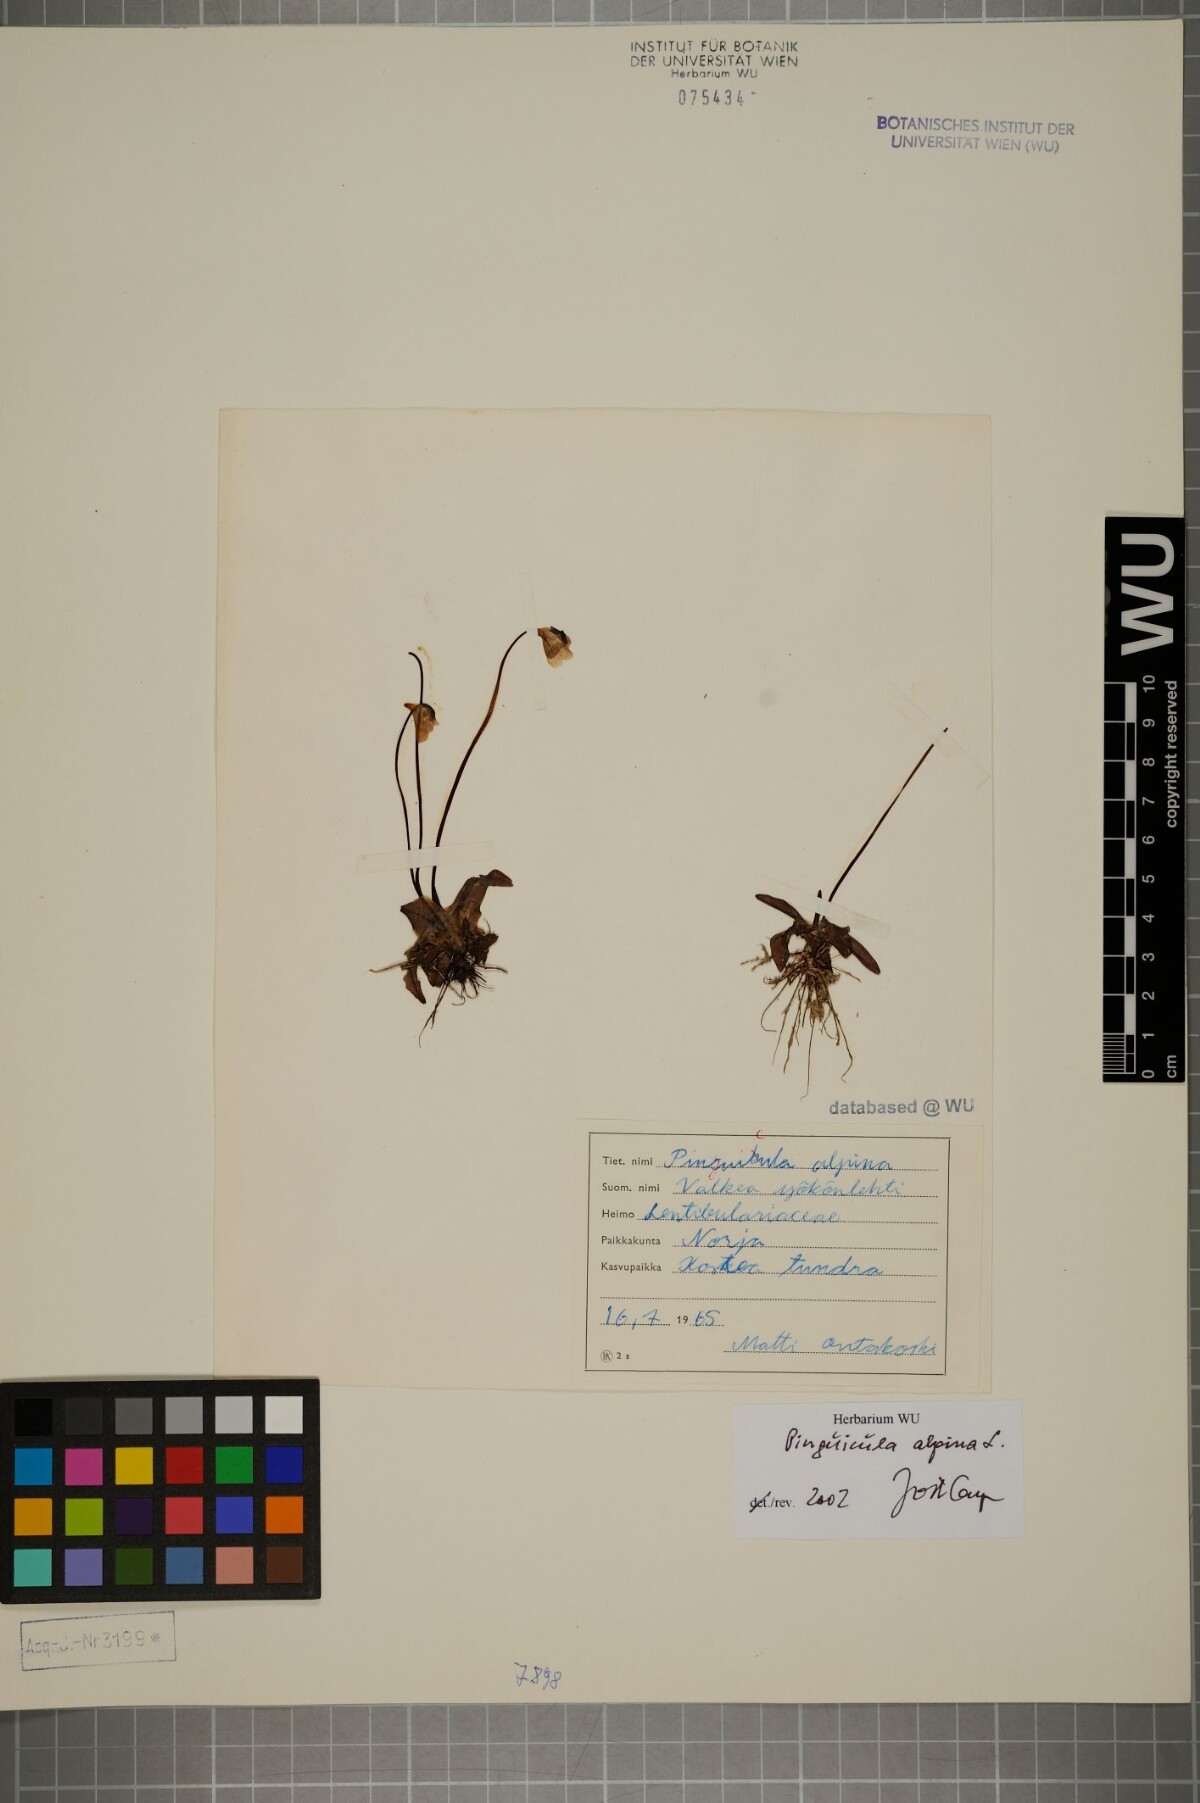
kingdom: Plantae
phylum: Tracheophyta
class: Magnoliopsida
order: Lamiales
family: Lentibulariaceae
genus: Pinguicula
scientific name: Pinguicula alpina
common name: Alpine butterwort
